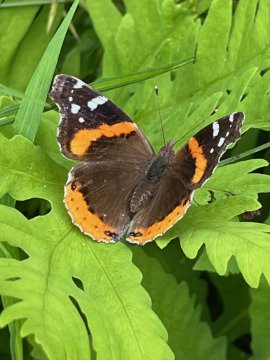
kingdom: Animalia
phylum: Arthropoda
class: Insecta
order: Lepidoptera
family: Nymphalidae
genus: Vanessa
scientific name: Vanessa atalanta
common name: Red Admiral
